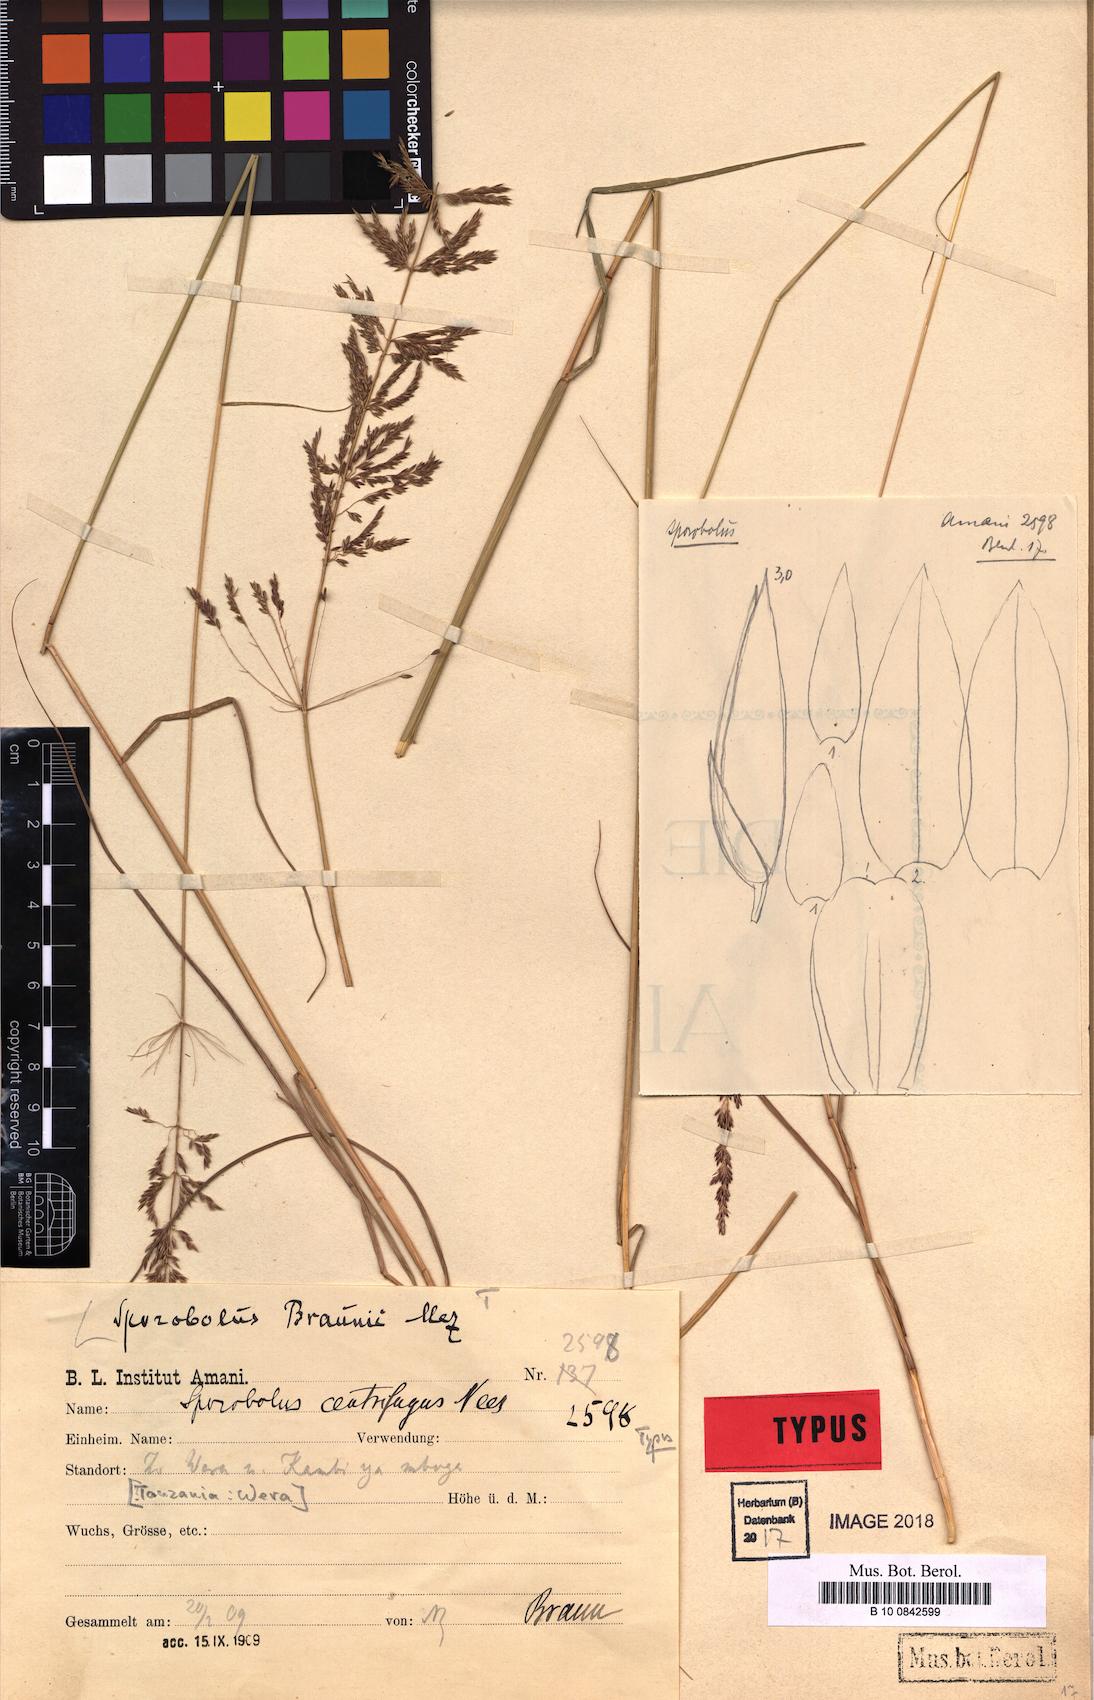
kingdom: Plantae
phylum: Tracheophyta
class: Liliopsida
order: Poales
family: Poaceae
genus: Sporobolus
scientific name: Sporobolus sanguineus
